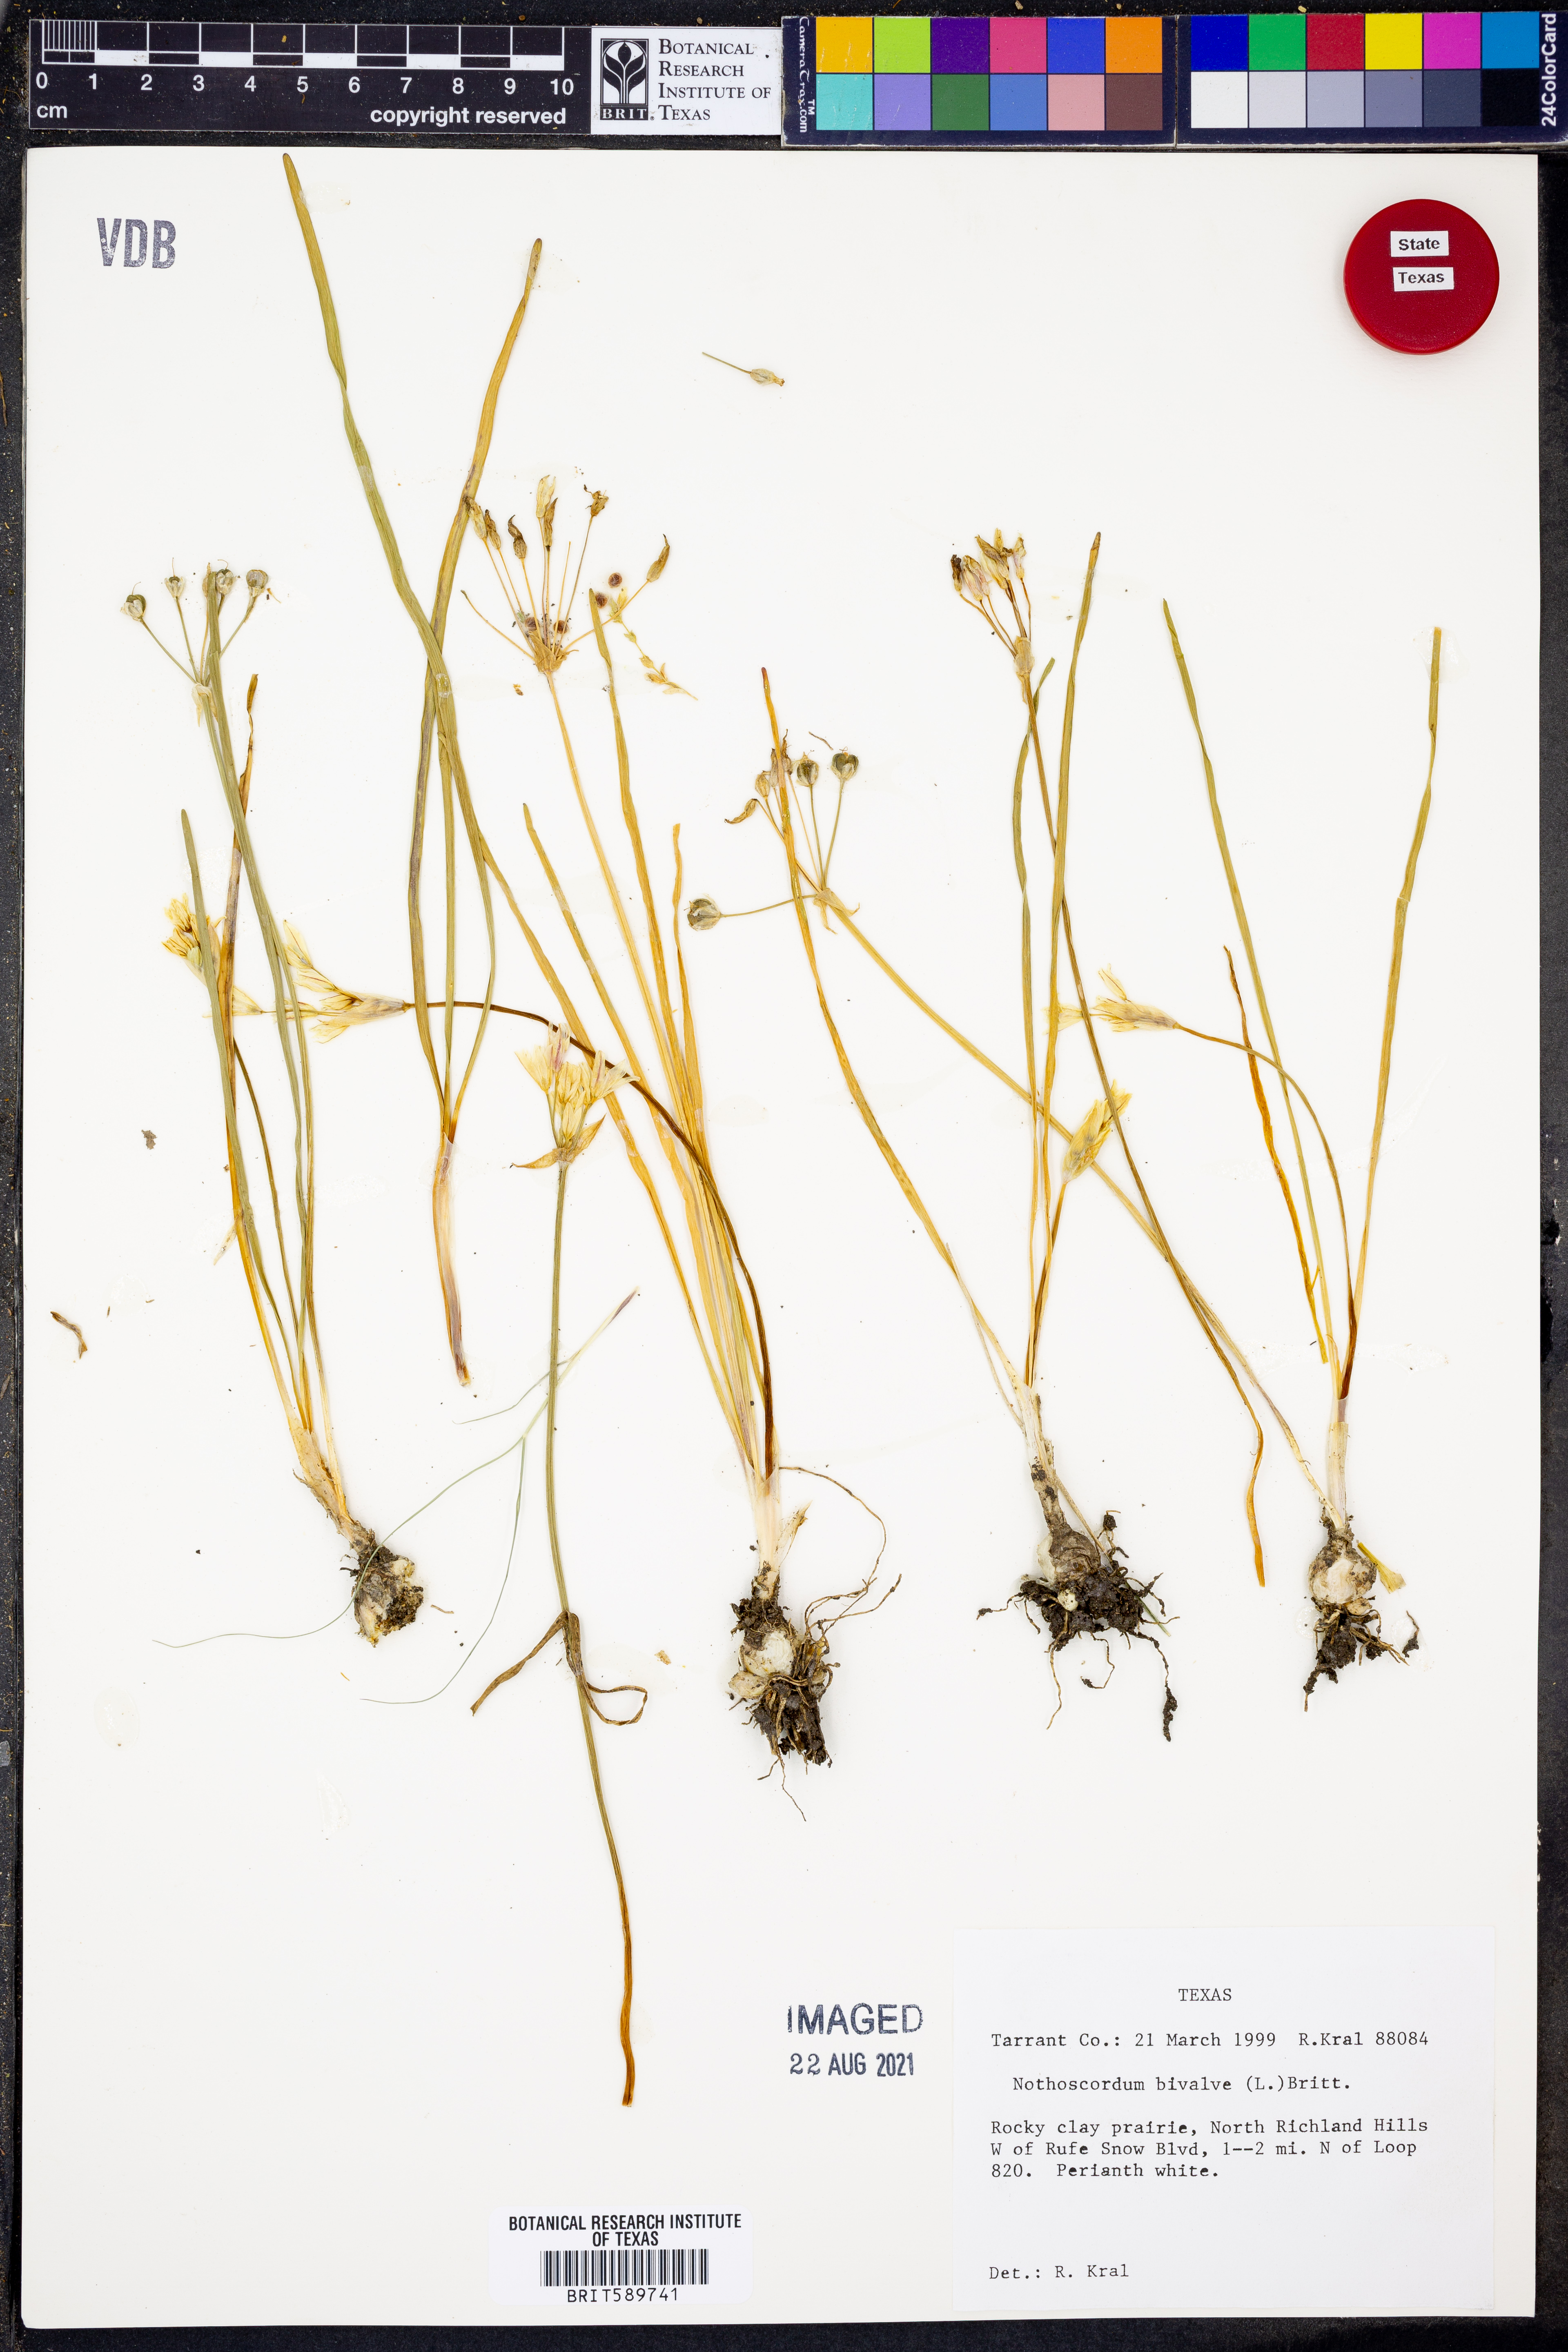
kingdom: Plantae
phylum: Tracheophyta
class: Liliopsida
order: Asparagales
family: Amaryllidaceae
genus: Nothoscordum
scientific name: Nothoscordum bivalve
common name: Crow-poison
